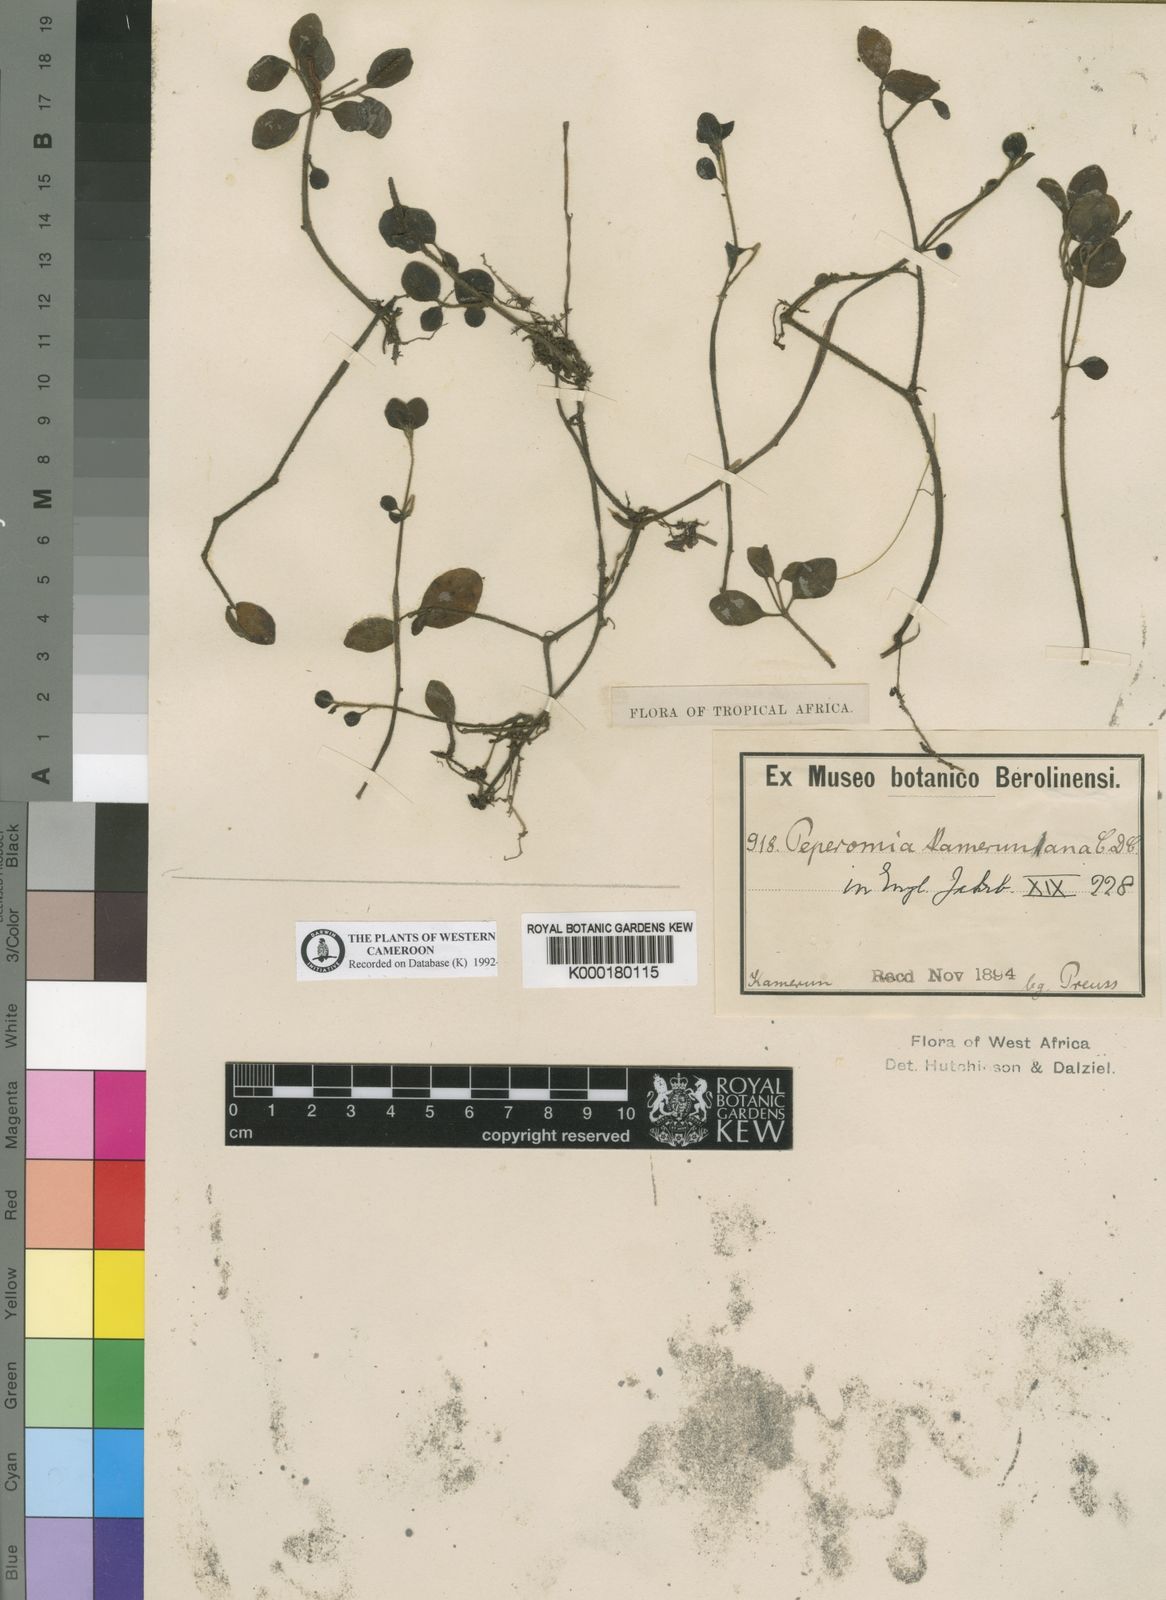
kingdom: Plantae
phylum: Tracheophyta
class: Magnoliopsida
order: Piperales
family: Piperaceae
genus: Peperomia
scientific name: Peperomia kamerunana
